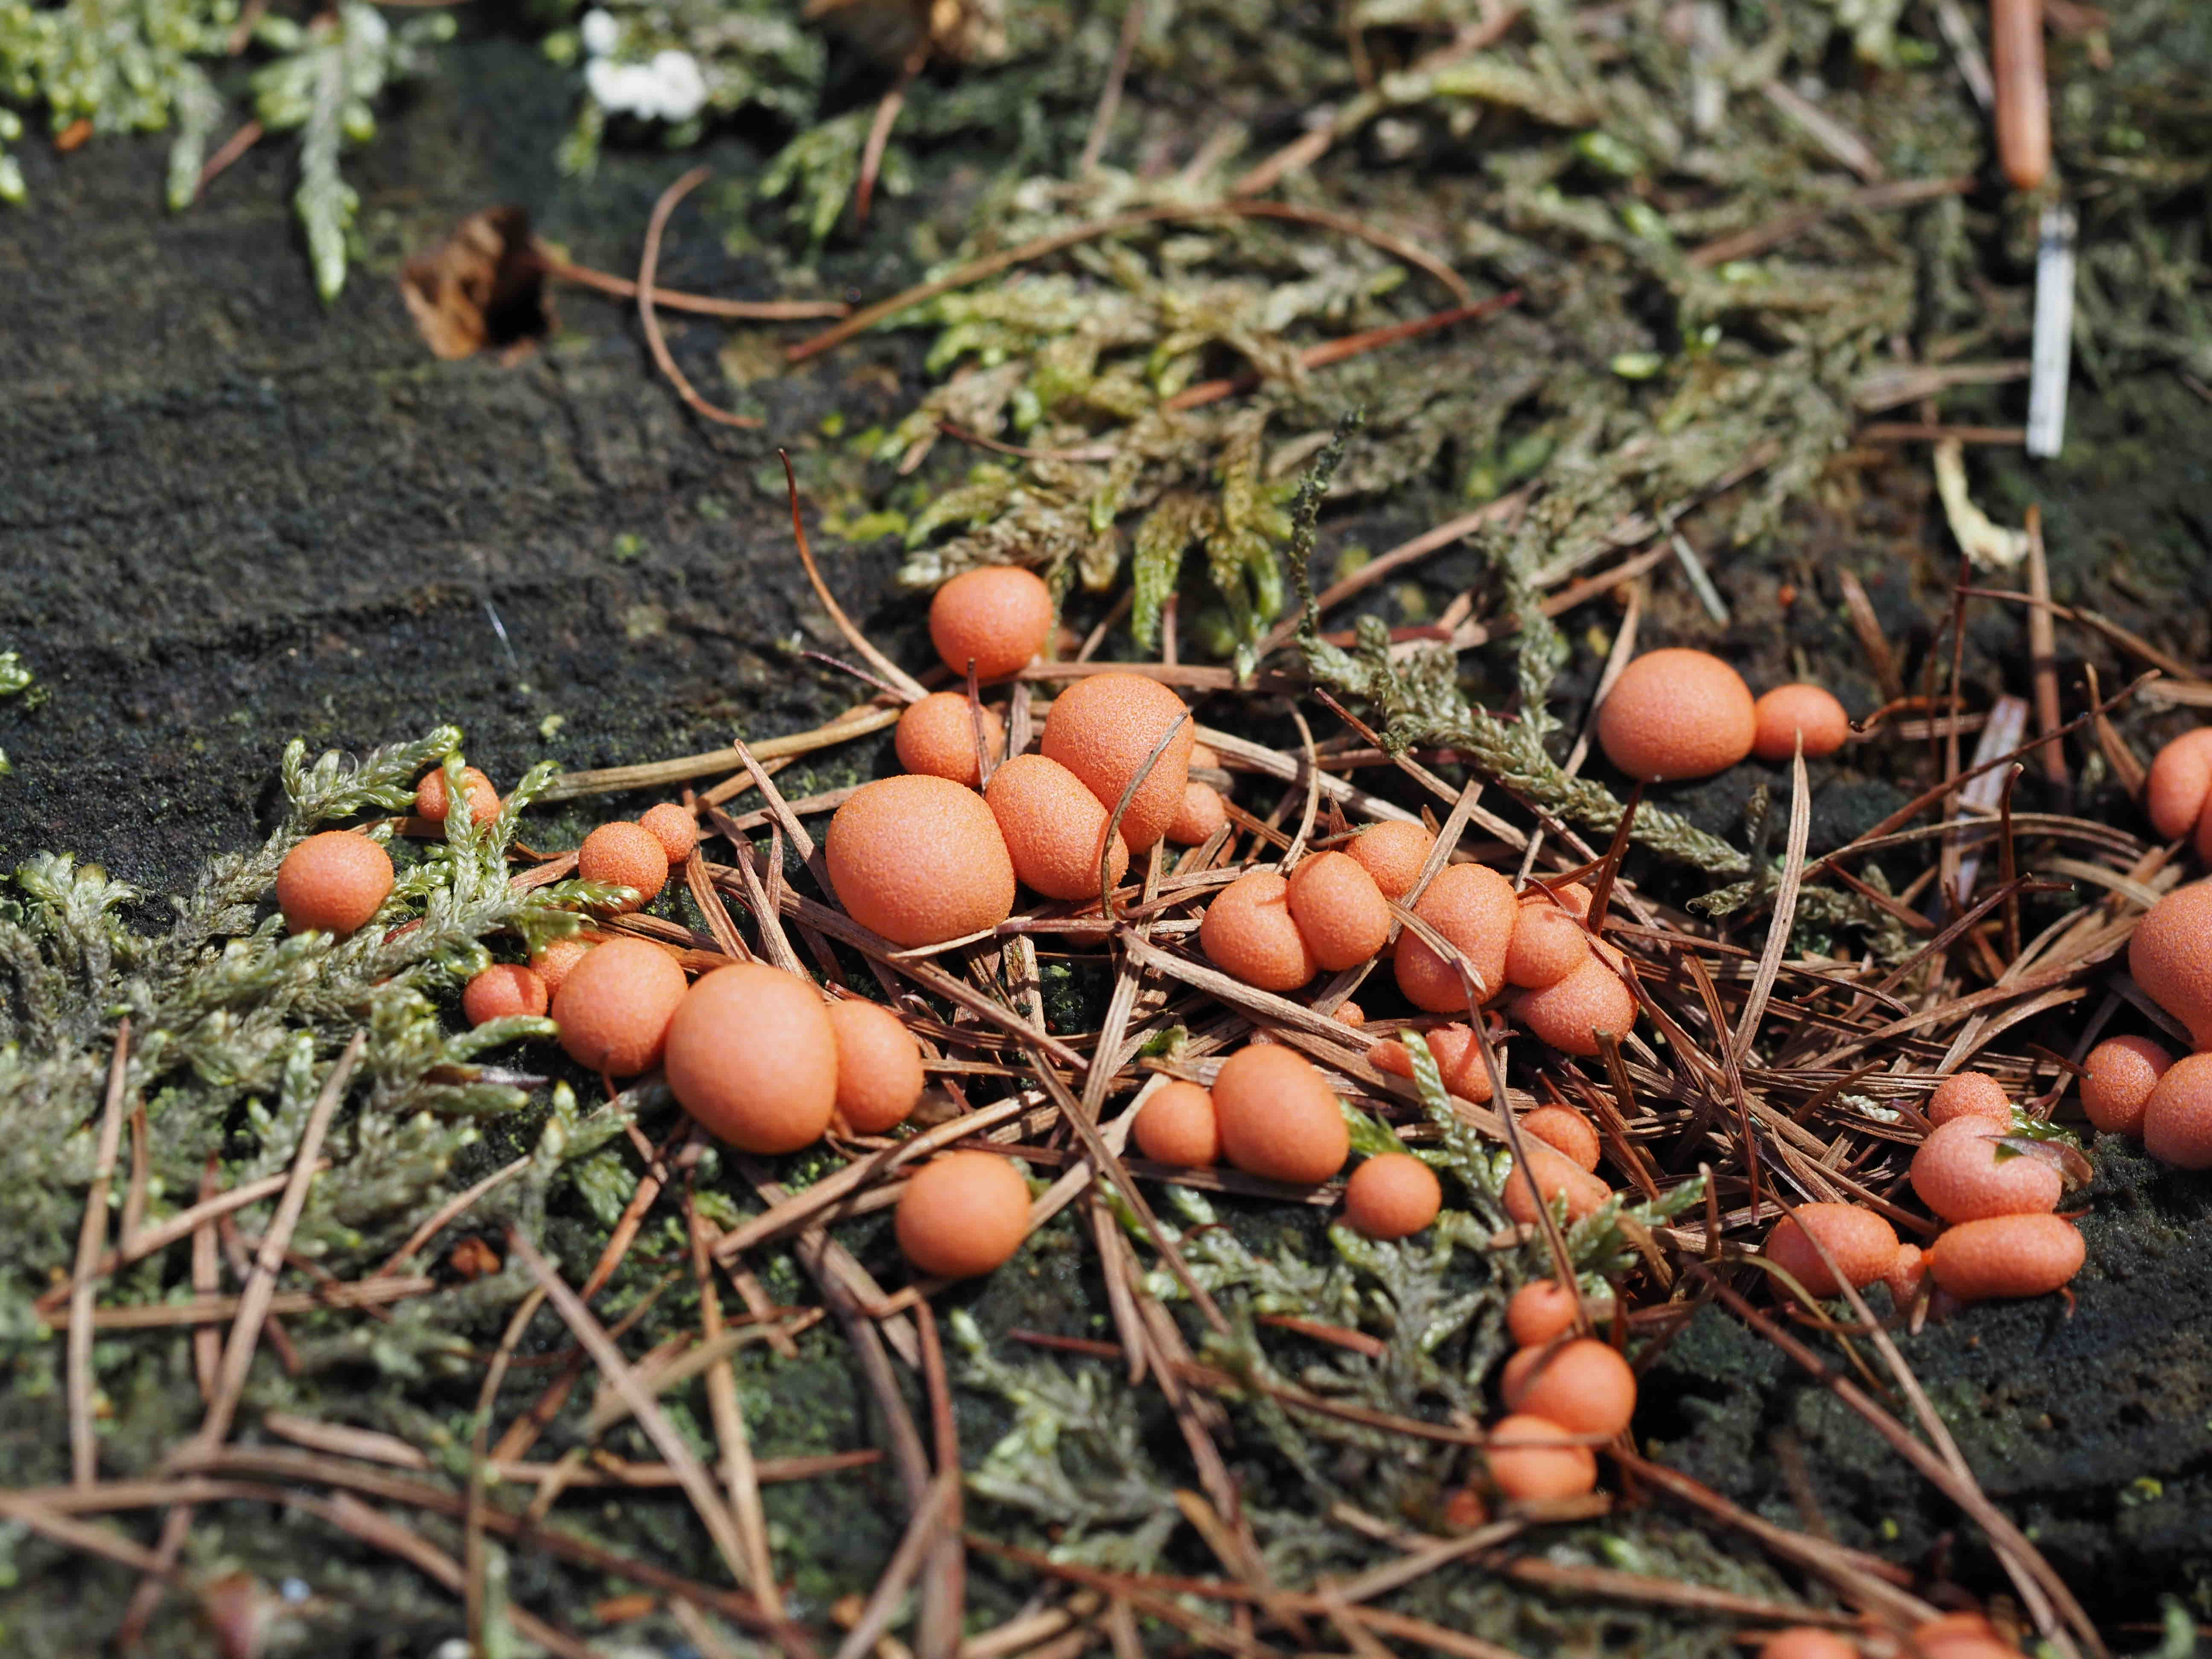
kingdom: Protozoa
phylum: Mycetozoa
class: Myxomycetes
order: Cribrariales
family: Tubiferaceae
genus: Lycogala
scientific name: Lycogala epidendrum
